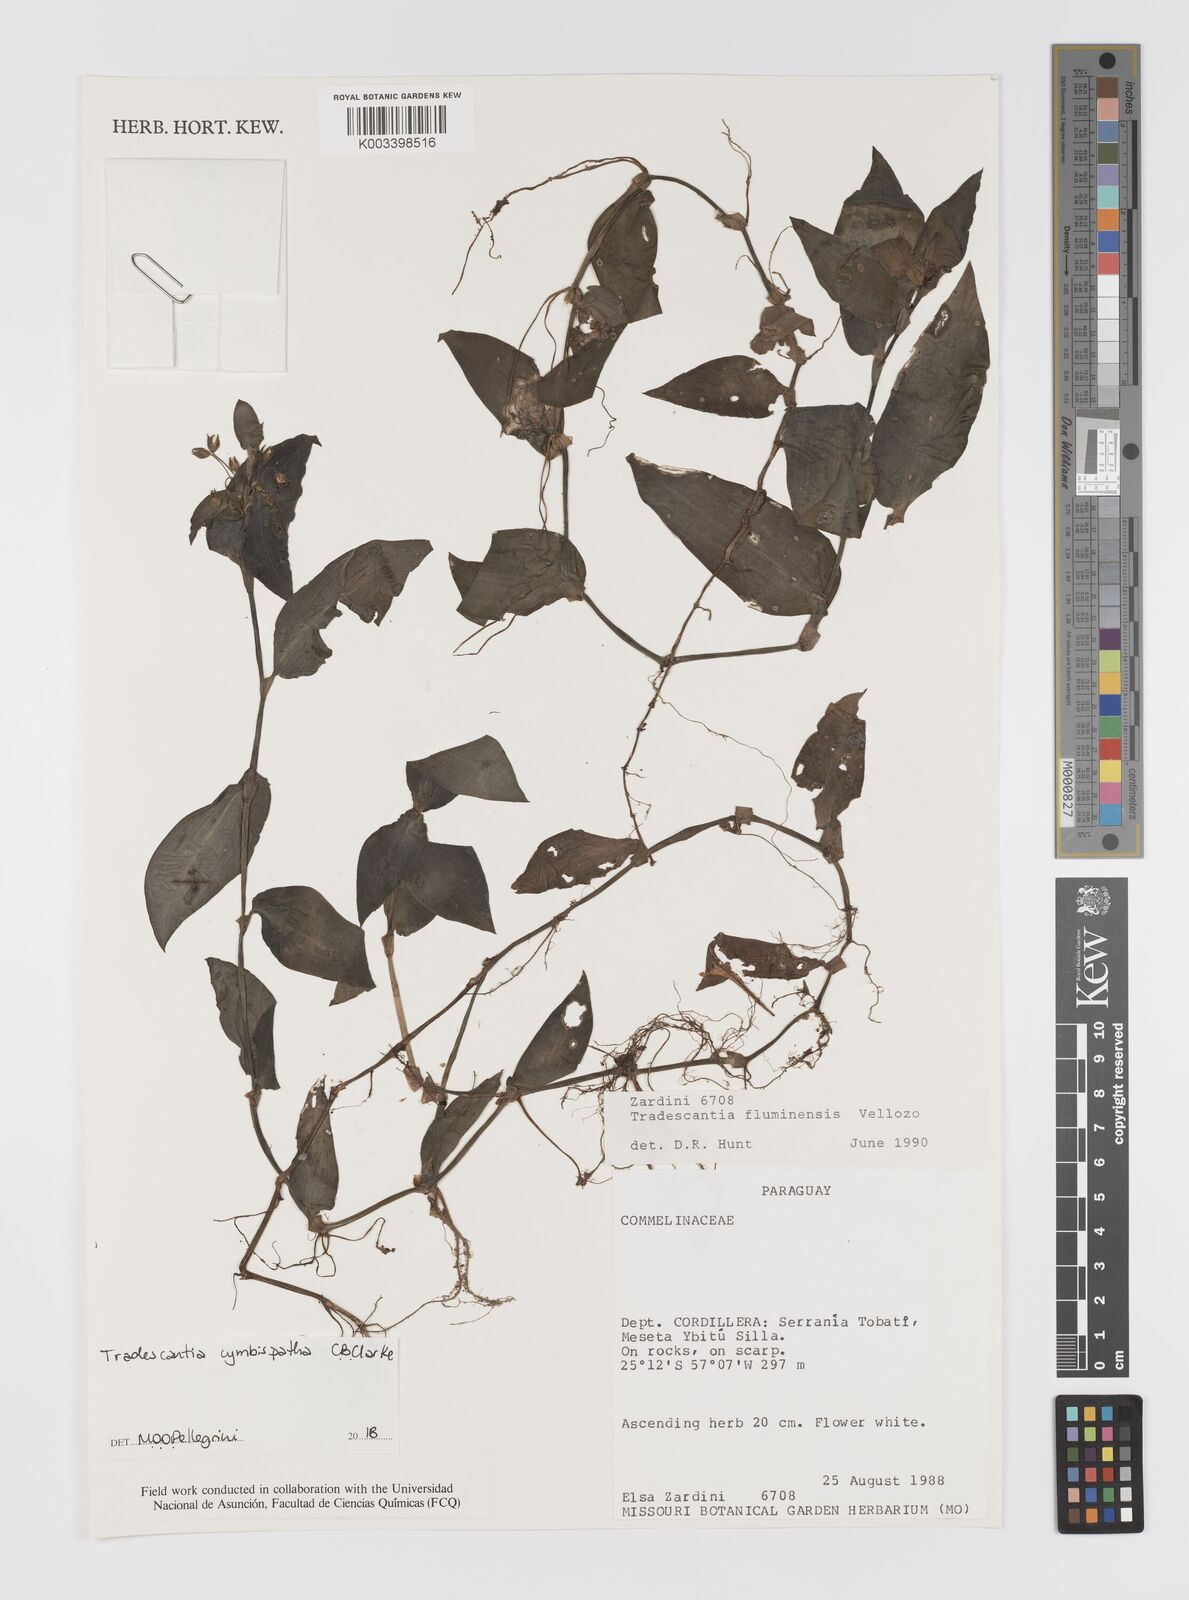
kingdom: Plantae
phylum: Tracheophyta
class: Liliopsida
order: Commelinales
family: Commelinaceae
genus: Tradescantia
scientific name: Tradescantia cymbispatha
